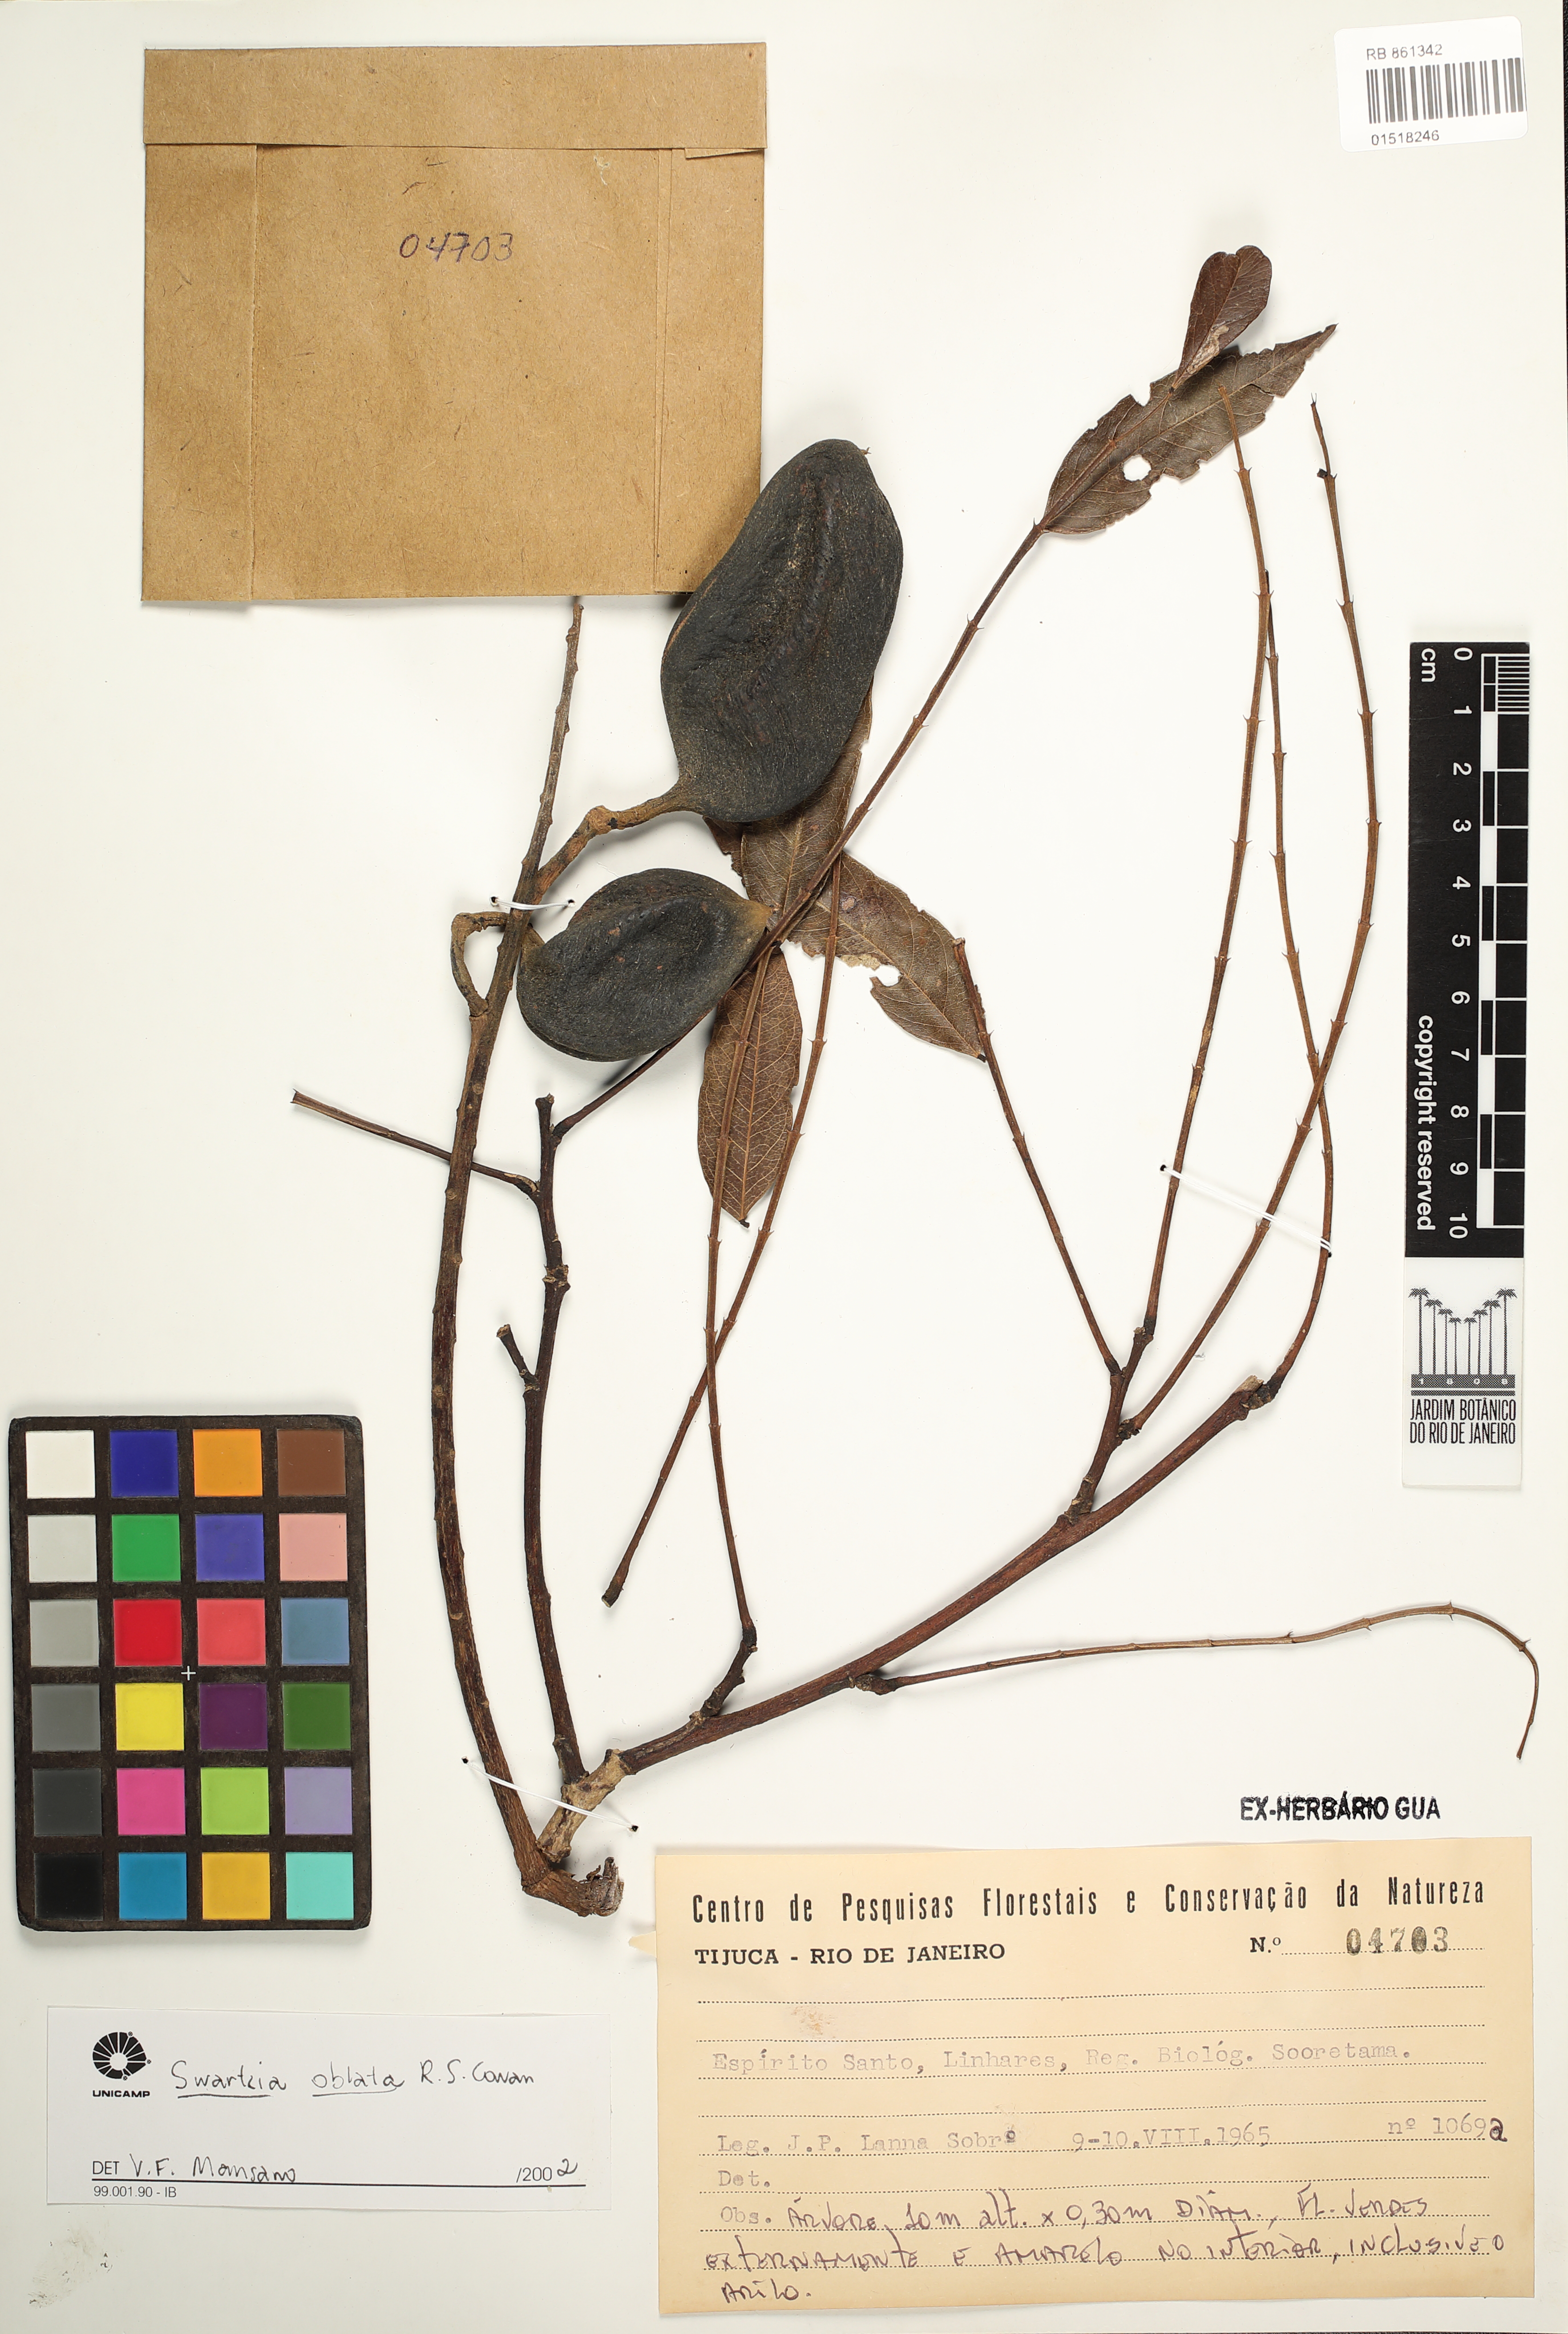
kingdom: Plantae
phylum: Tracheophyta
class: Magnoliopsida
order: Fabales
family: Fabaceae
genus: Swartzia
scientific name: Swartzia oblata
